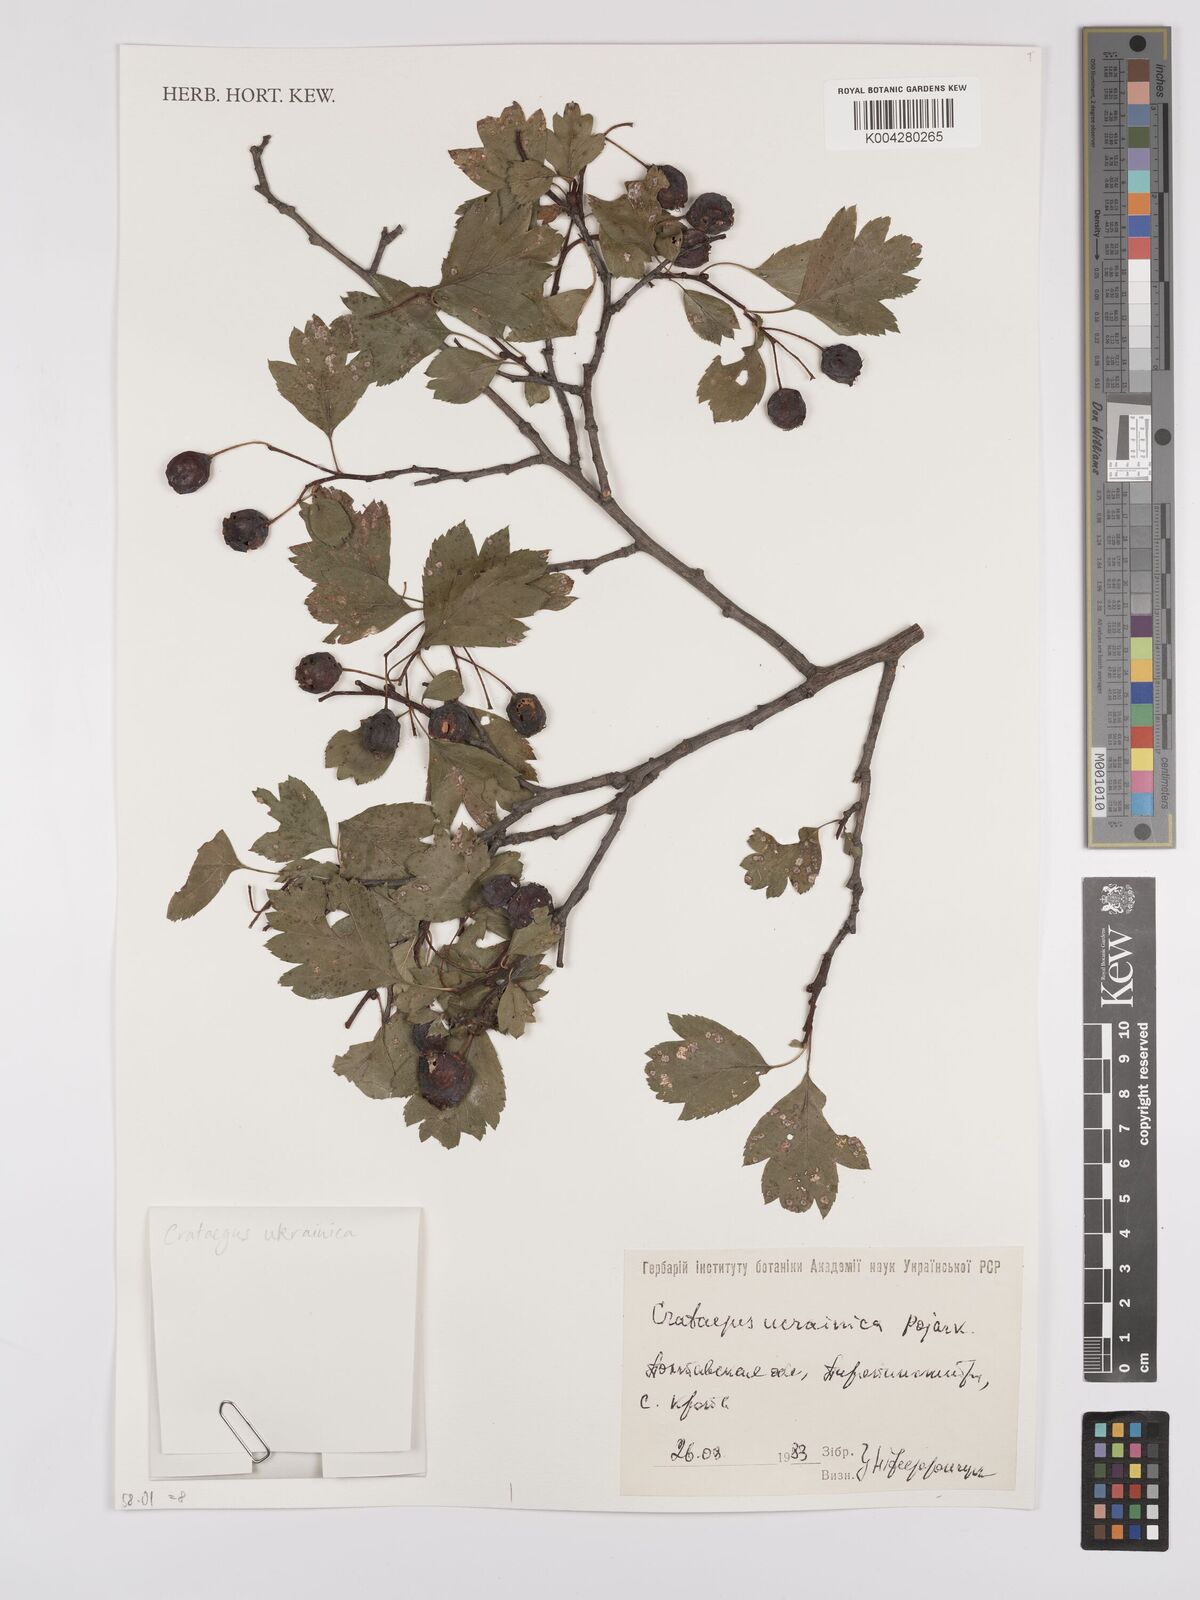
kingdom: Plantae
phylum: Tracheophyta
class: Magnoliopsida
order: Rosales
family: Rosaceae
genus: Crataegus
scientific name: Crataegus meyeri
